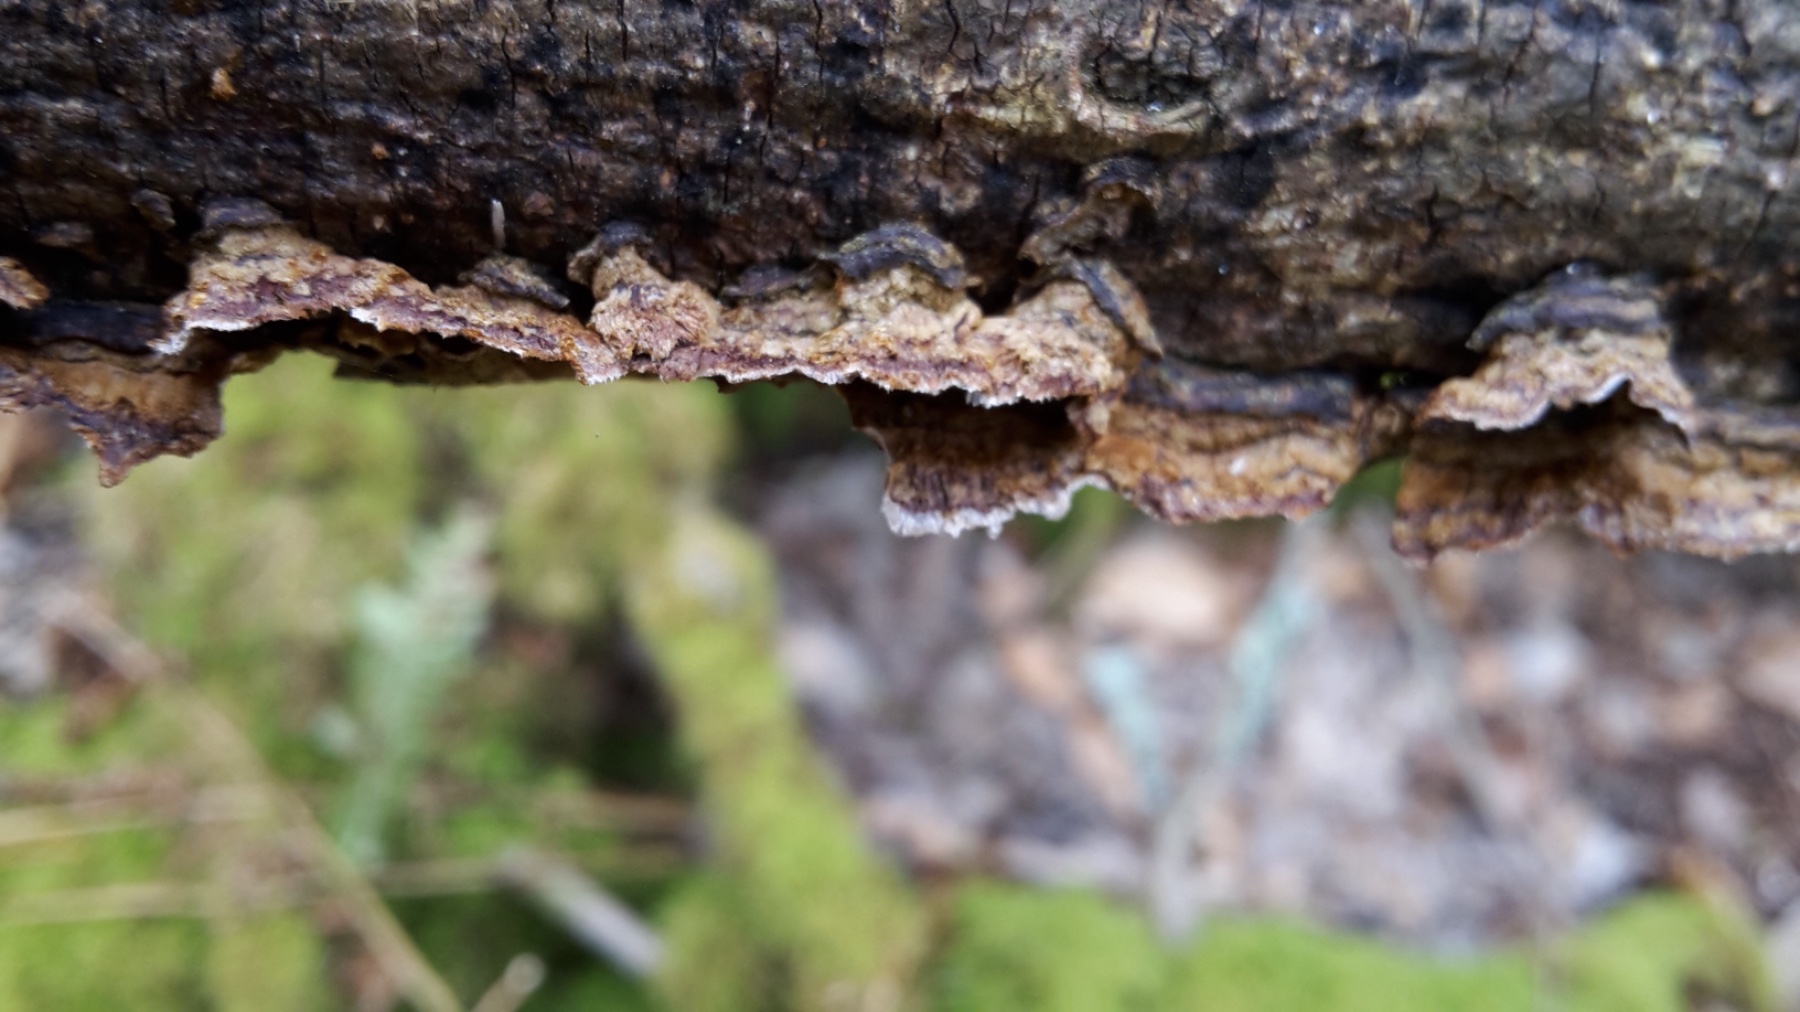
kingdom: Fungi
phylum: Basidiomycota
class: Agaricomycetes
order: Hymenochaetales
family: Hymenochaetaceae
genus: Hydnoporia
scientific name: Hydnoporia tabacina
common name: tobaksbrun ruslædersvamp
